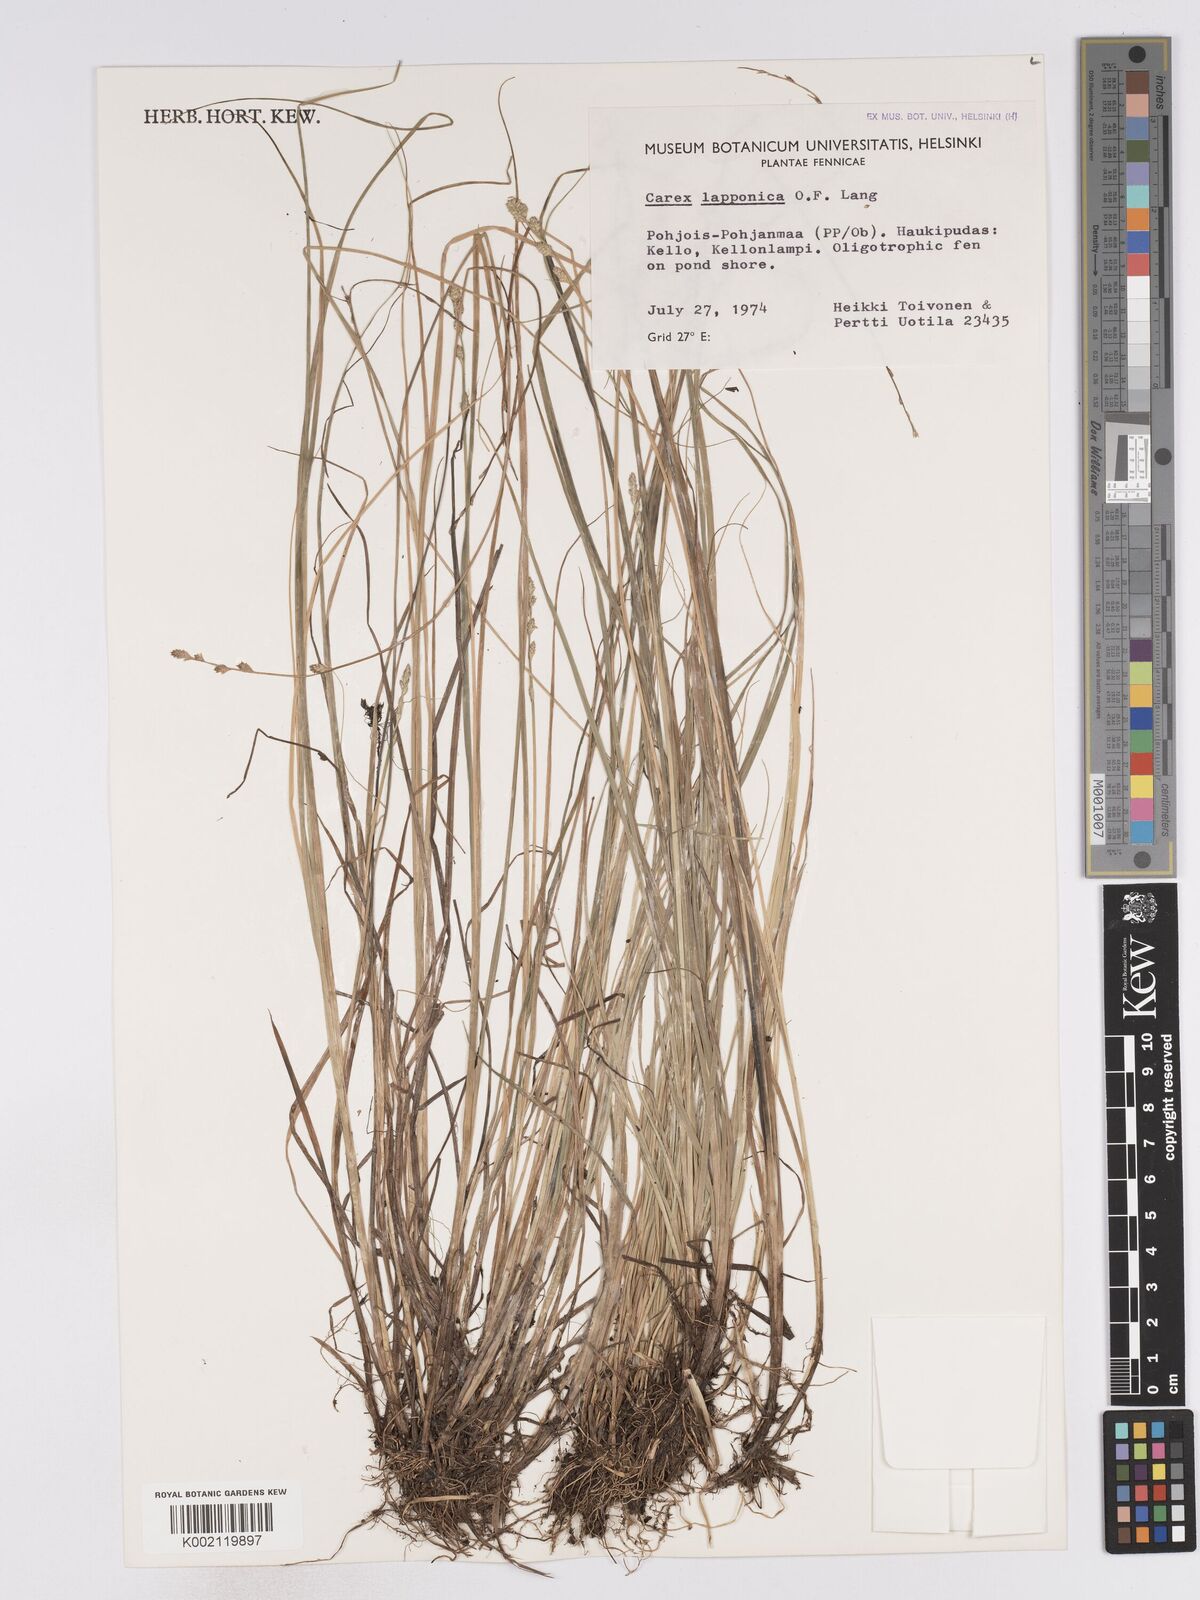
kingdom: Plantae
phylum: Tracheophyta
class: Liliopsida
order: Poales
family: Cyperaceae
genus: Carex
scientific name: Carex lapponica
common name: Lapland sedge
